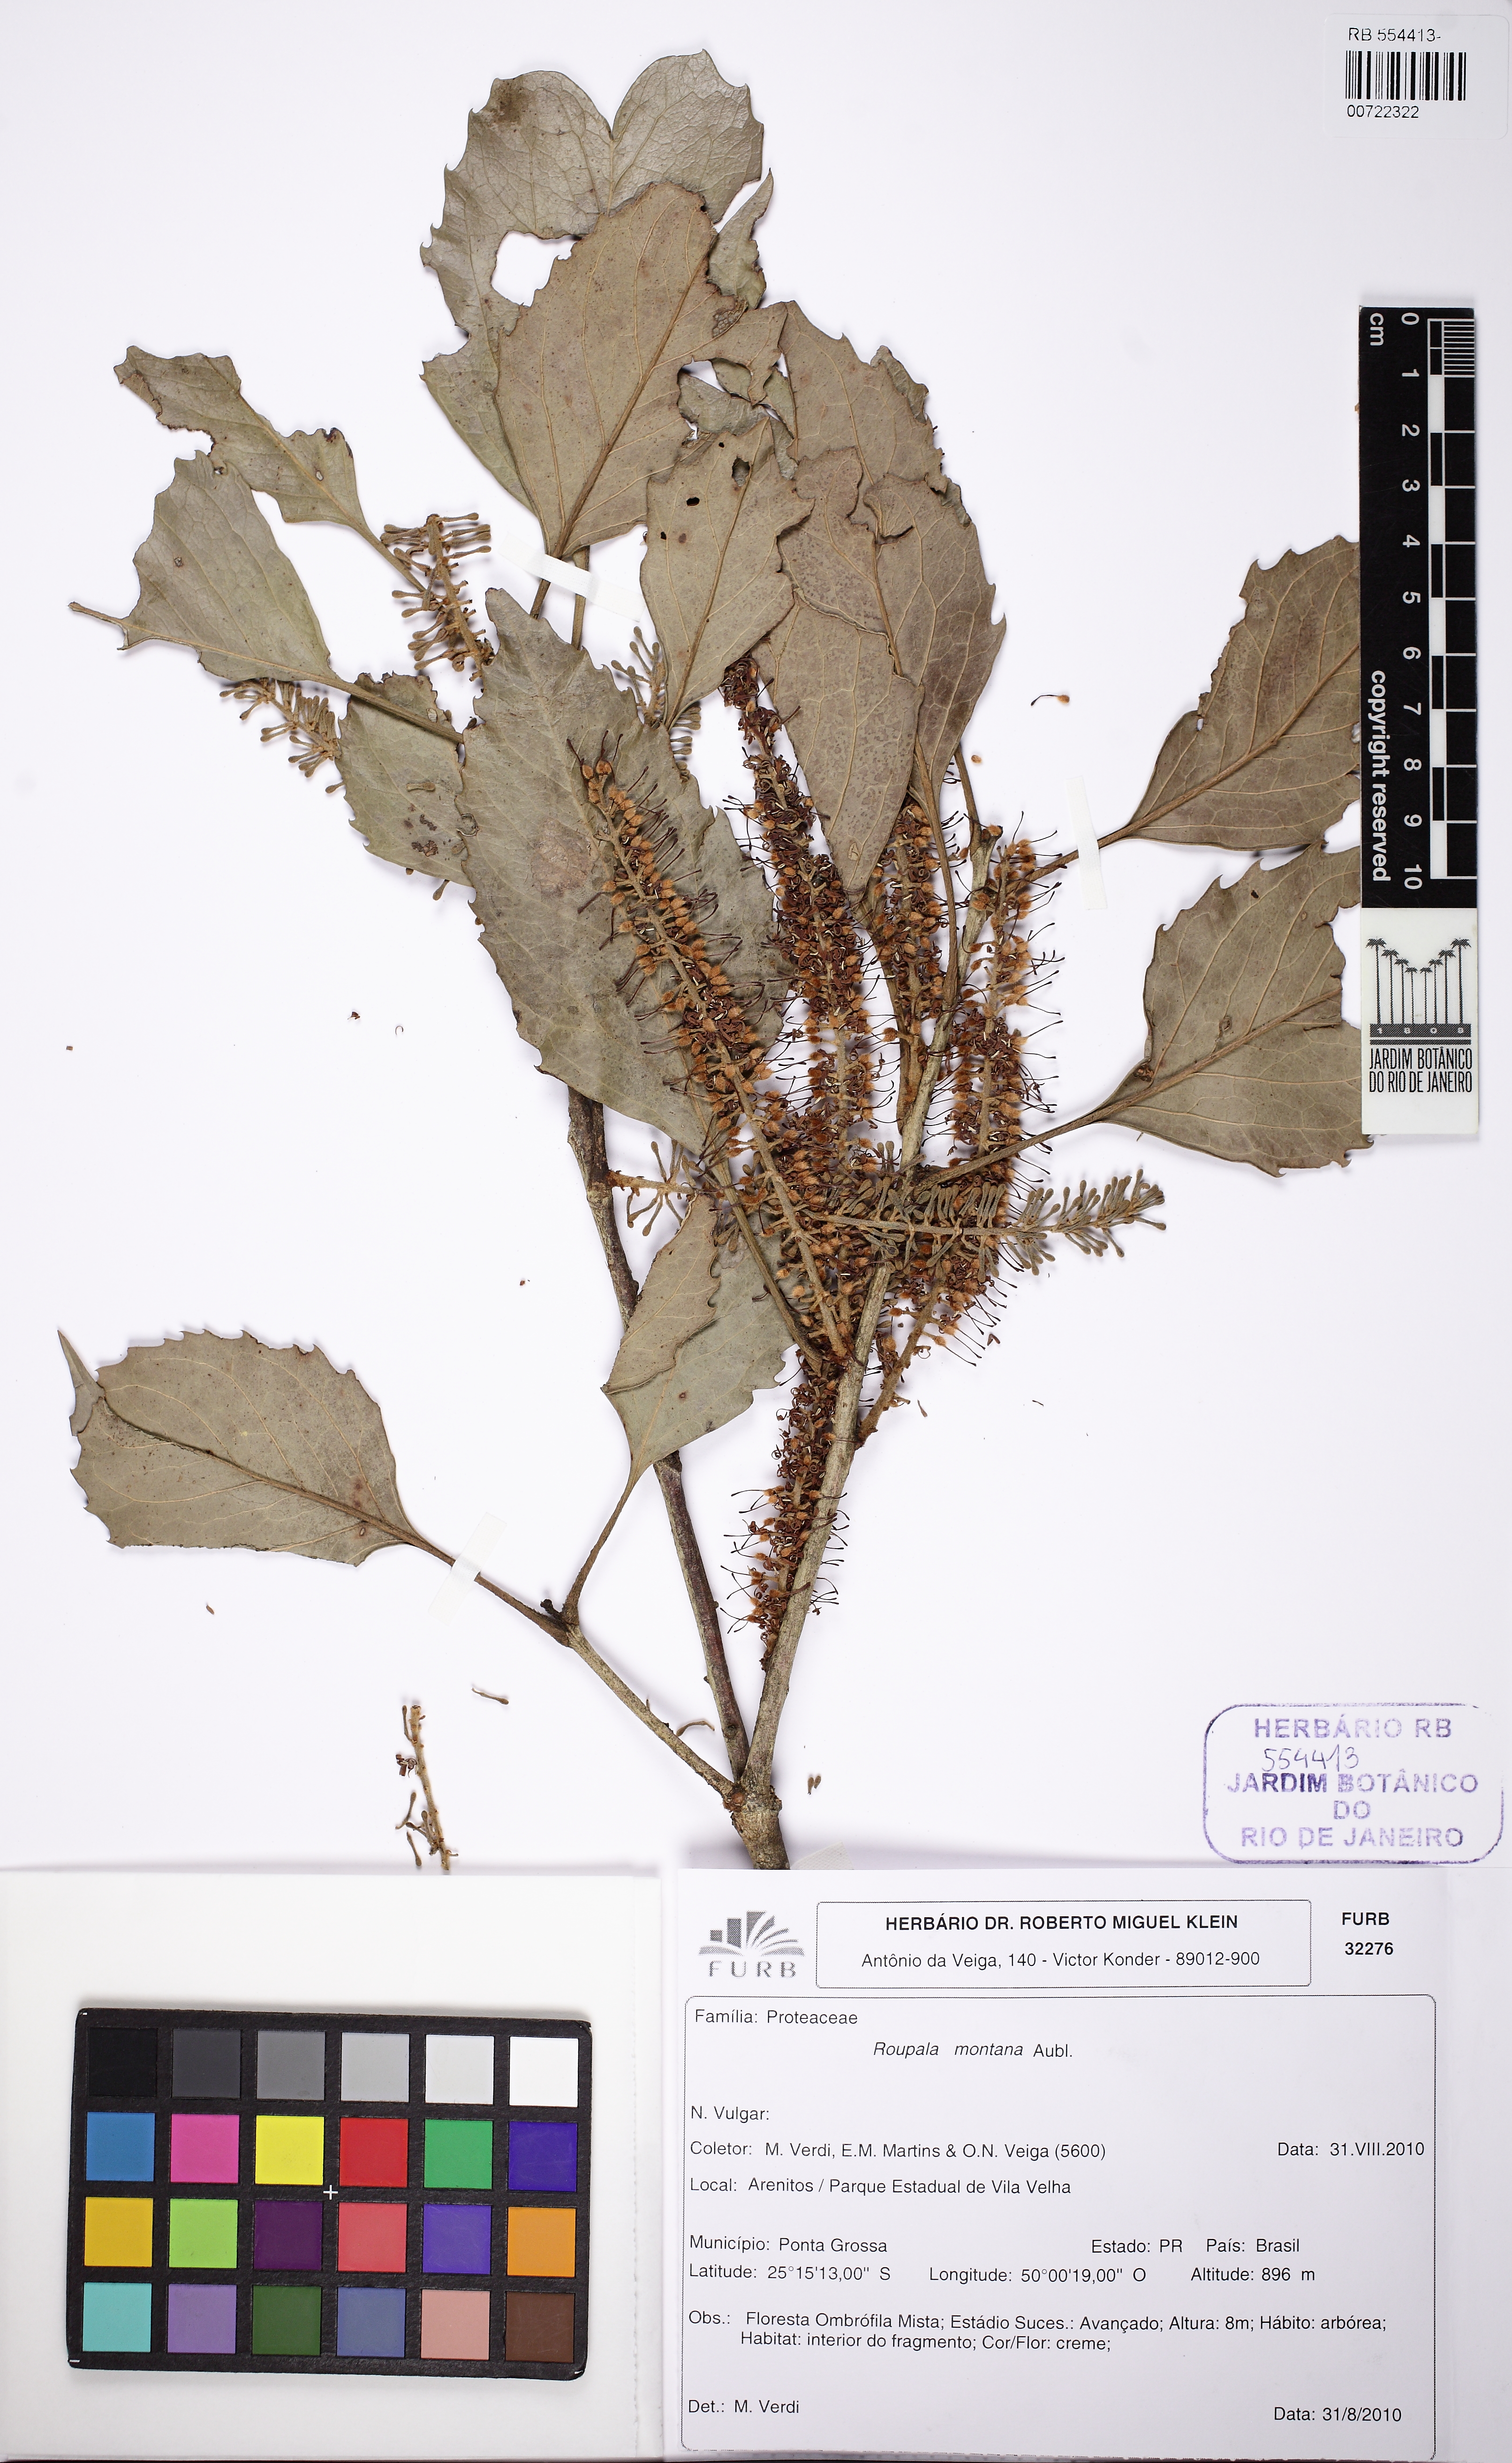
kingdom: Plantae
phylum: Tracheophyta
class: Magnoliopsida
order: Proteales
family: Proteaceae
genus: Roupala
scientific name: Roupala montana
